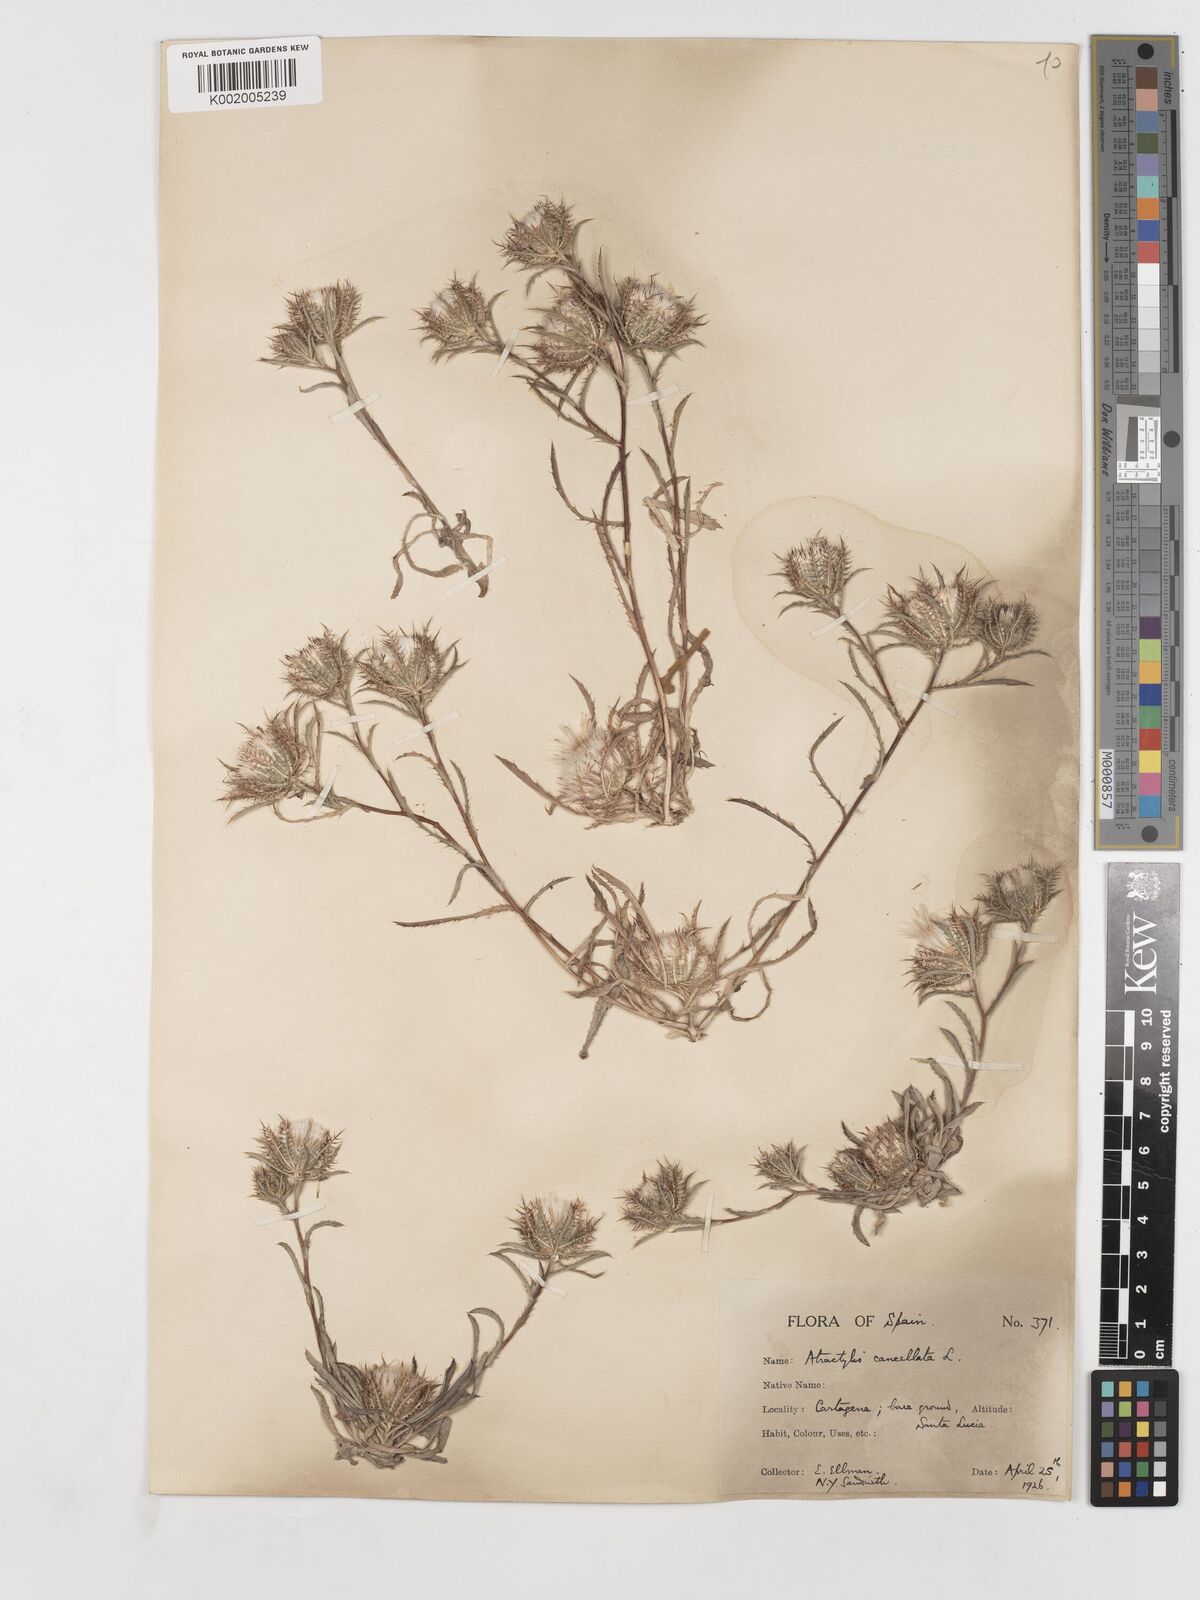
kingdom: Plantae
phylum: Tracheophyta
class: Magnoliopsida
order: Asterales
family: Asteraceae
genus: Atractylis
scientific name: Atractylis cancellata
